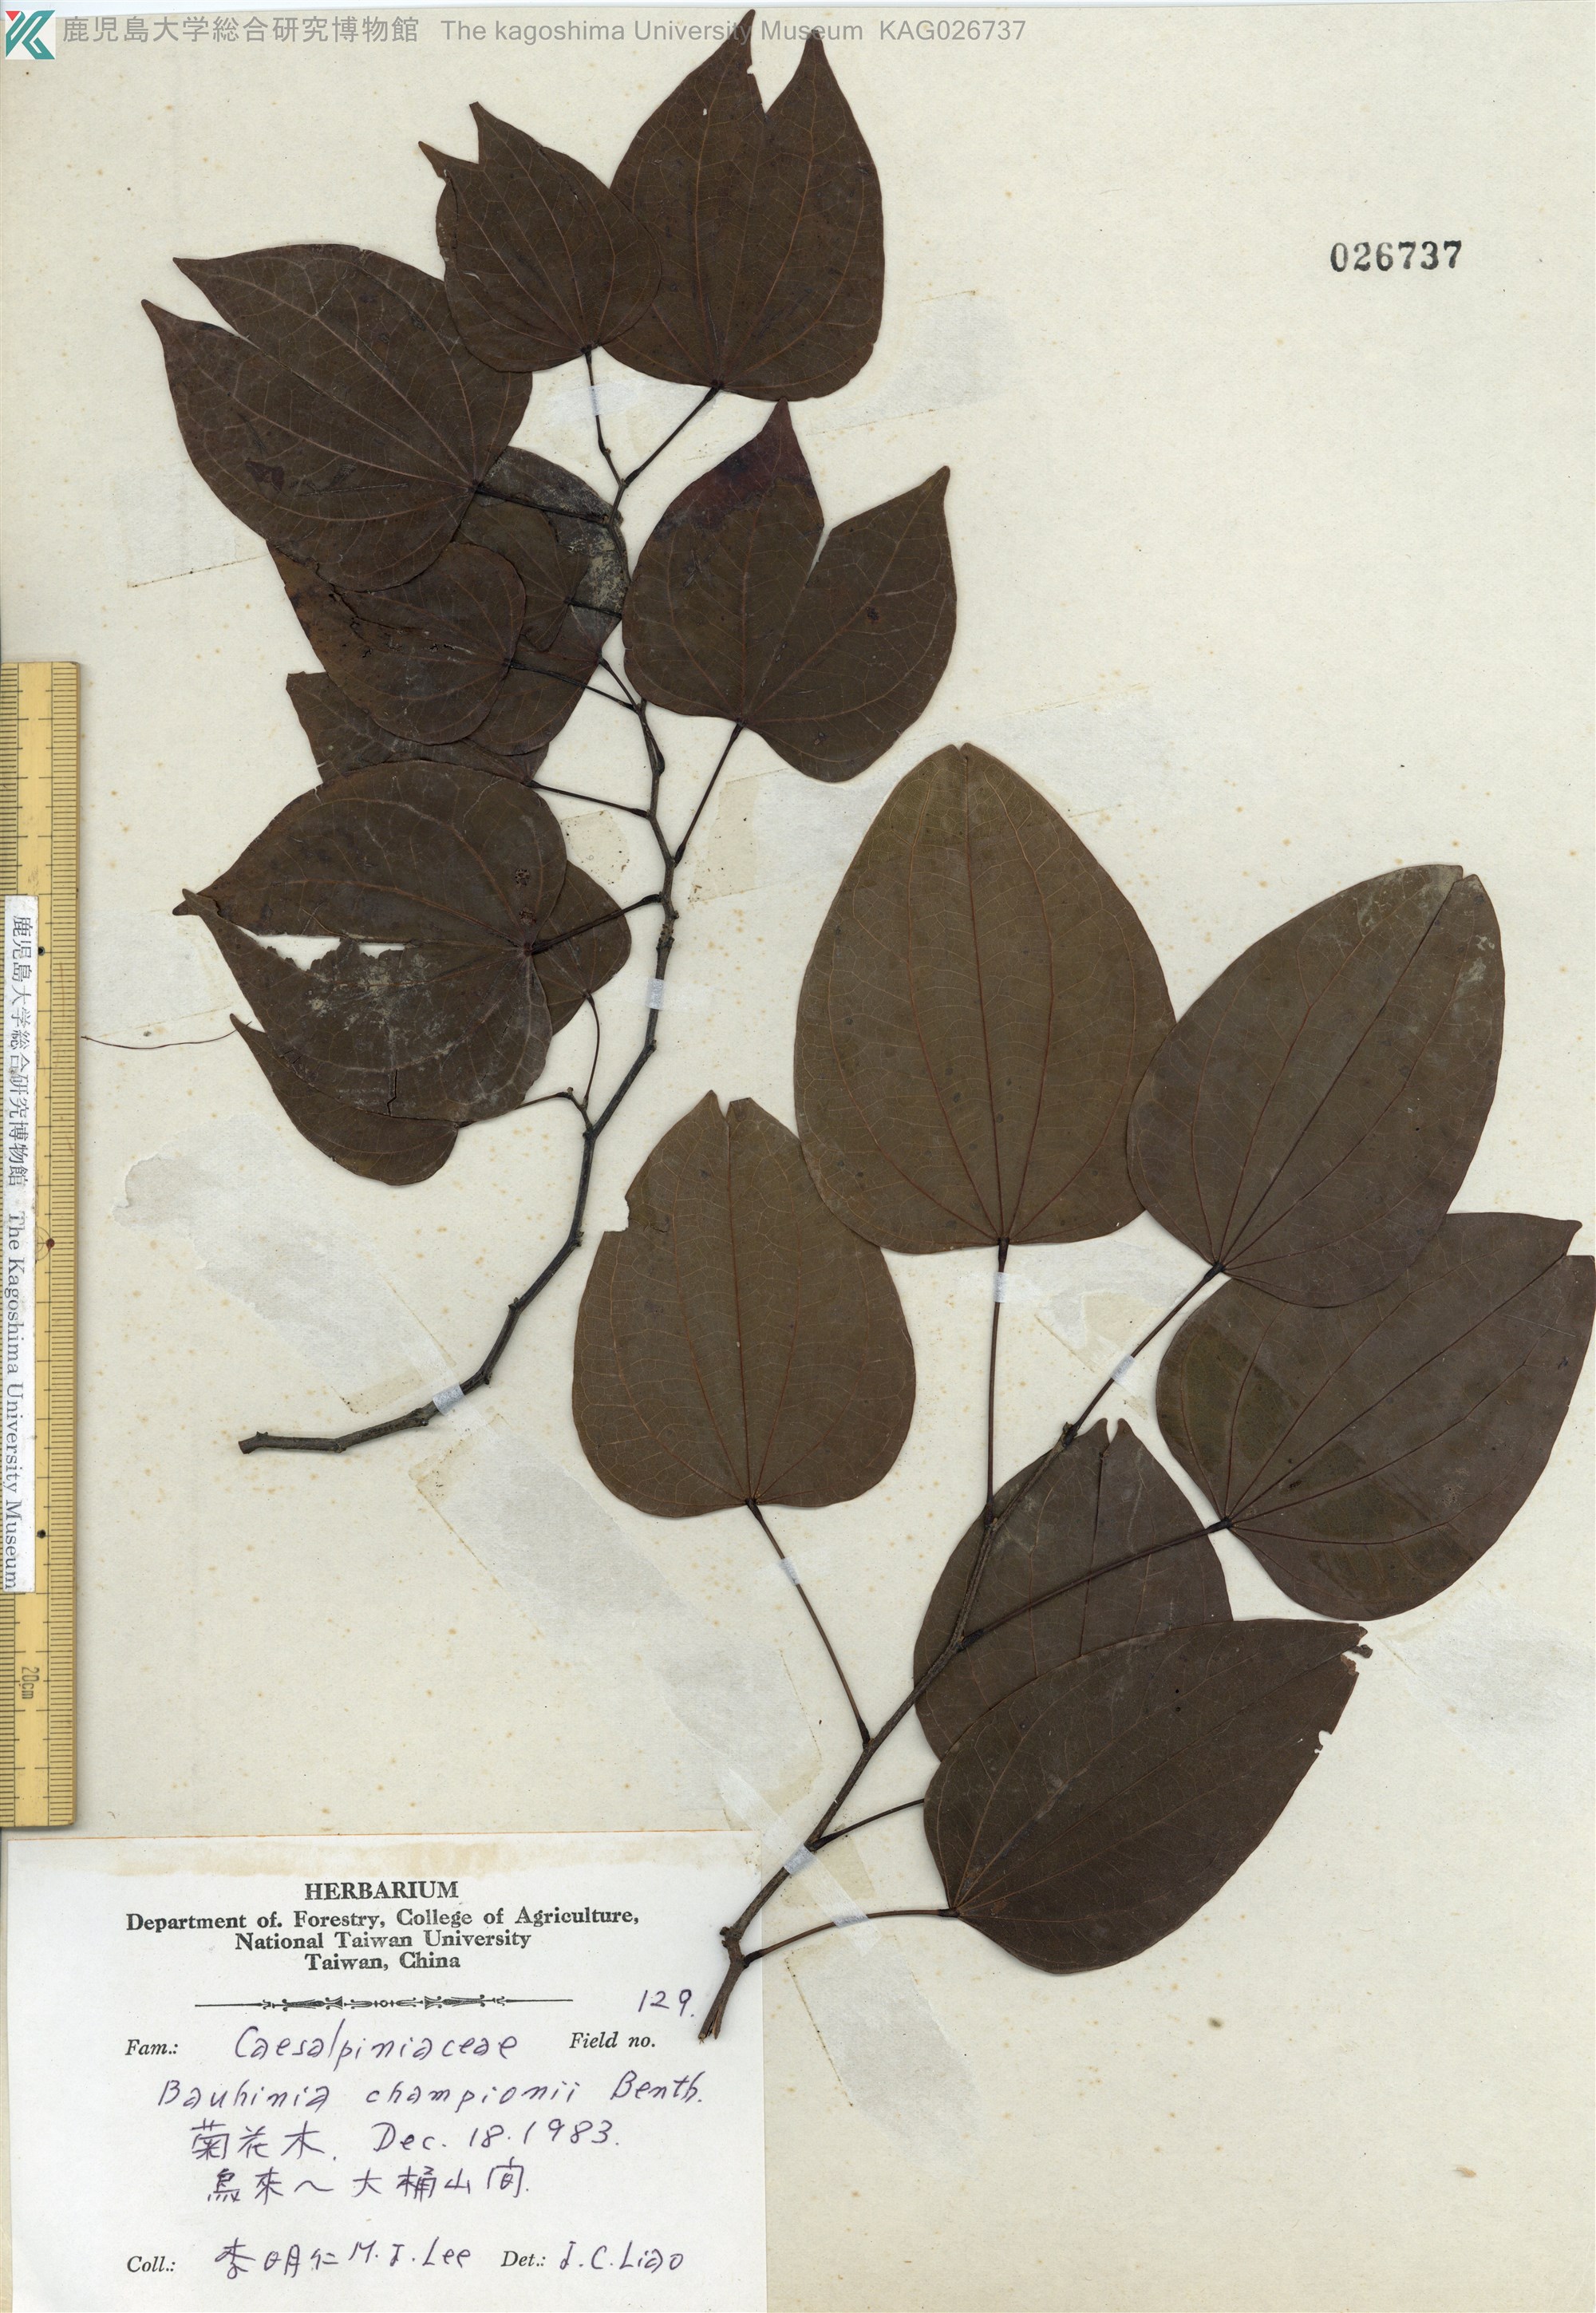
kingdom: Plantae
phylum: Tracheophyta
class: Magnoliopsida
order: Fabales
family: Fabaceae
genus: Phanera
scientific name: Phanera championii
